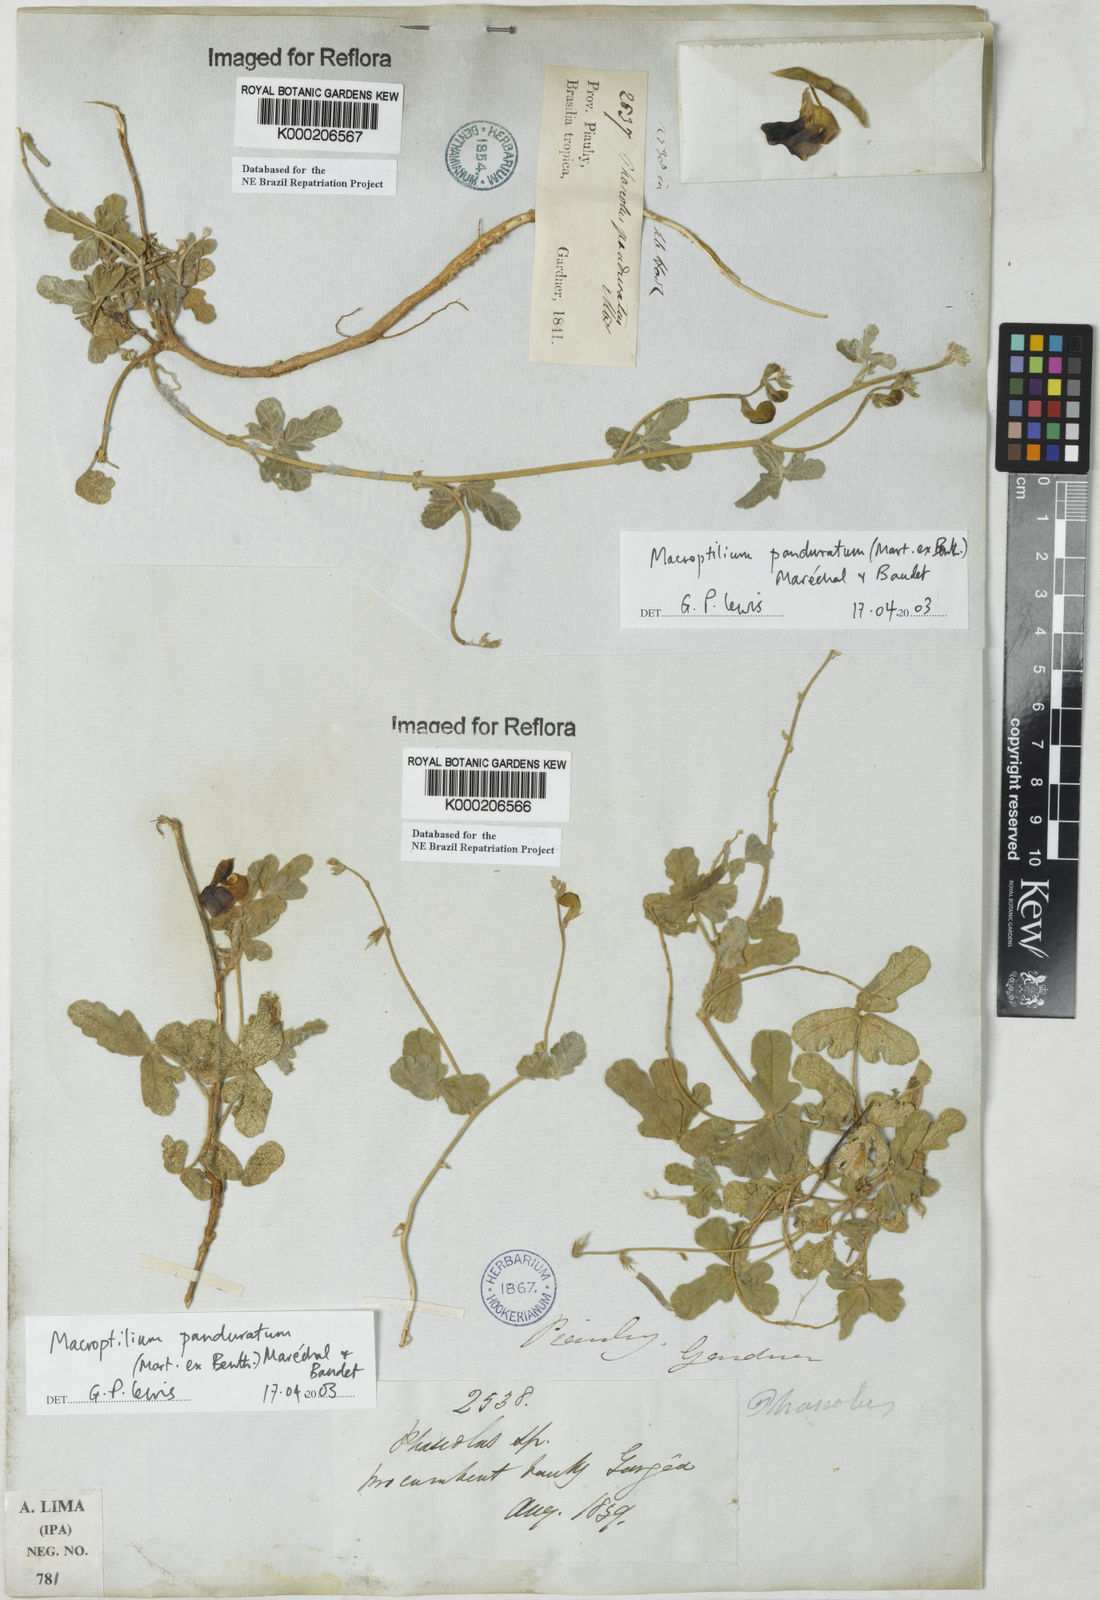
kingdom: Plantae
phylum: Tracheophyta
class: Magnoliopsida
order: Fabales
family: Fabaceae
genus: Macroptilium
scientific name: Macroptilium
